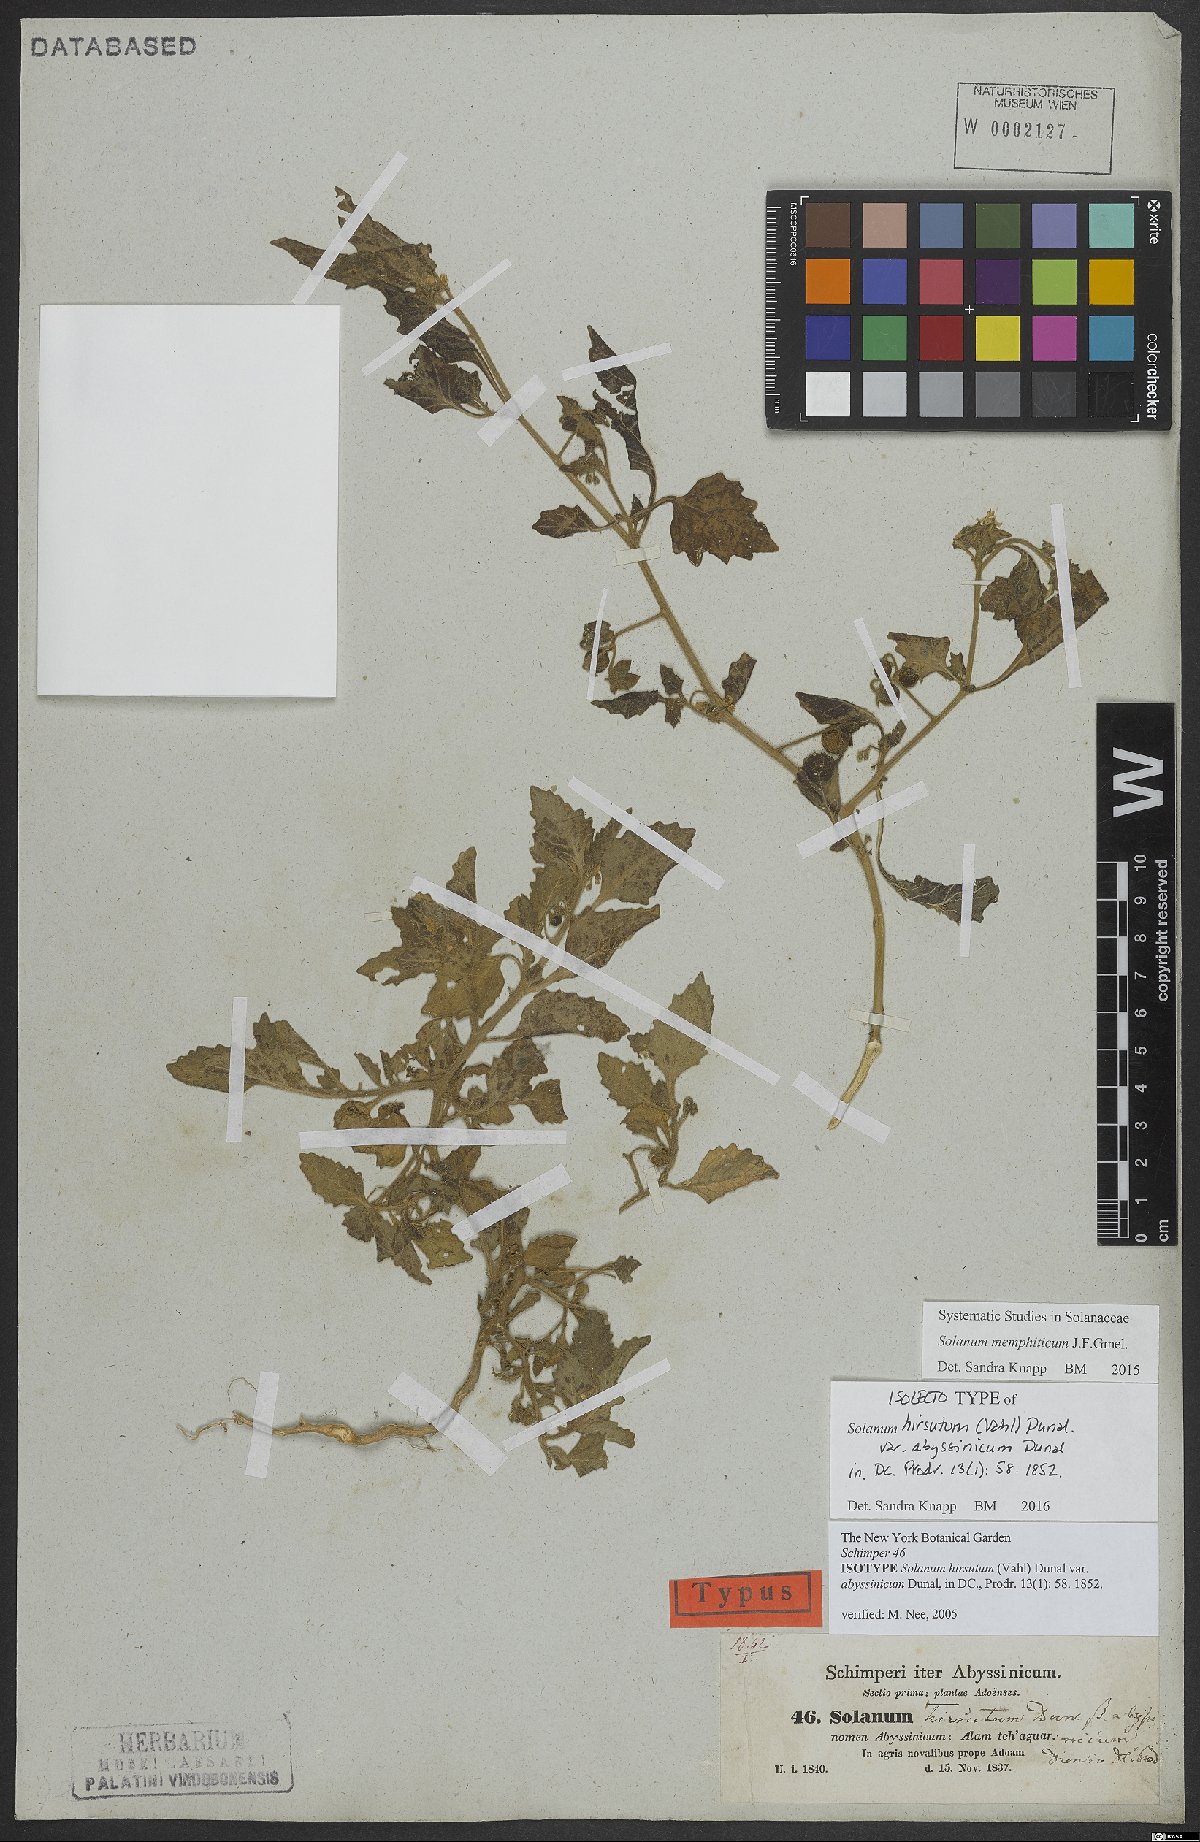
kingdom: Plantae
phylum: Tracheophyta
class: Magnoliopsida
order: Solanales
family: Solanaceae
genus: Solanum
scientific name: Solanum memphiticum
